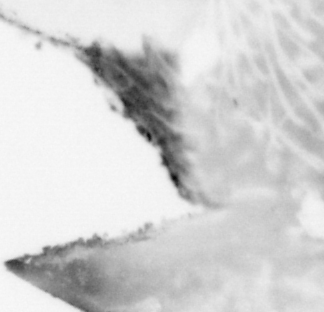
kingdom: Animalia
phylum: Chordata
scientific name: Chordata
